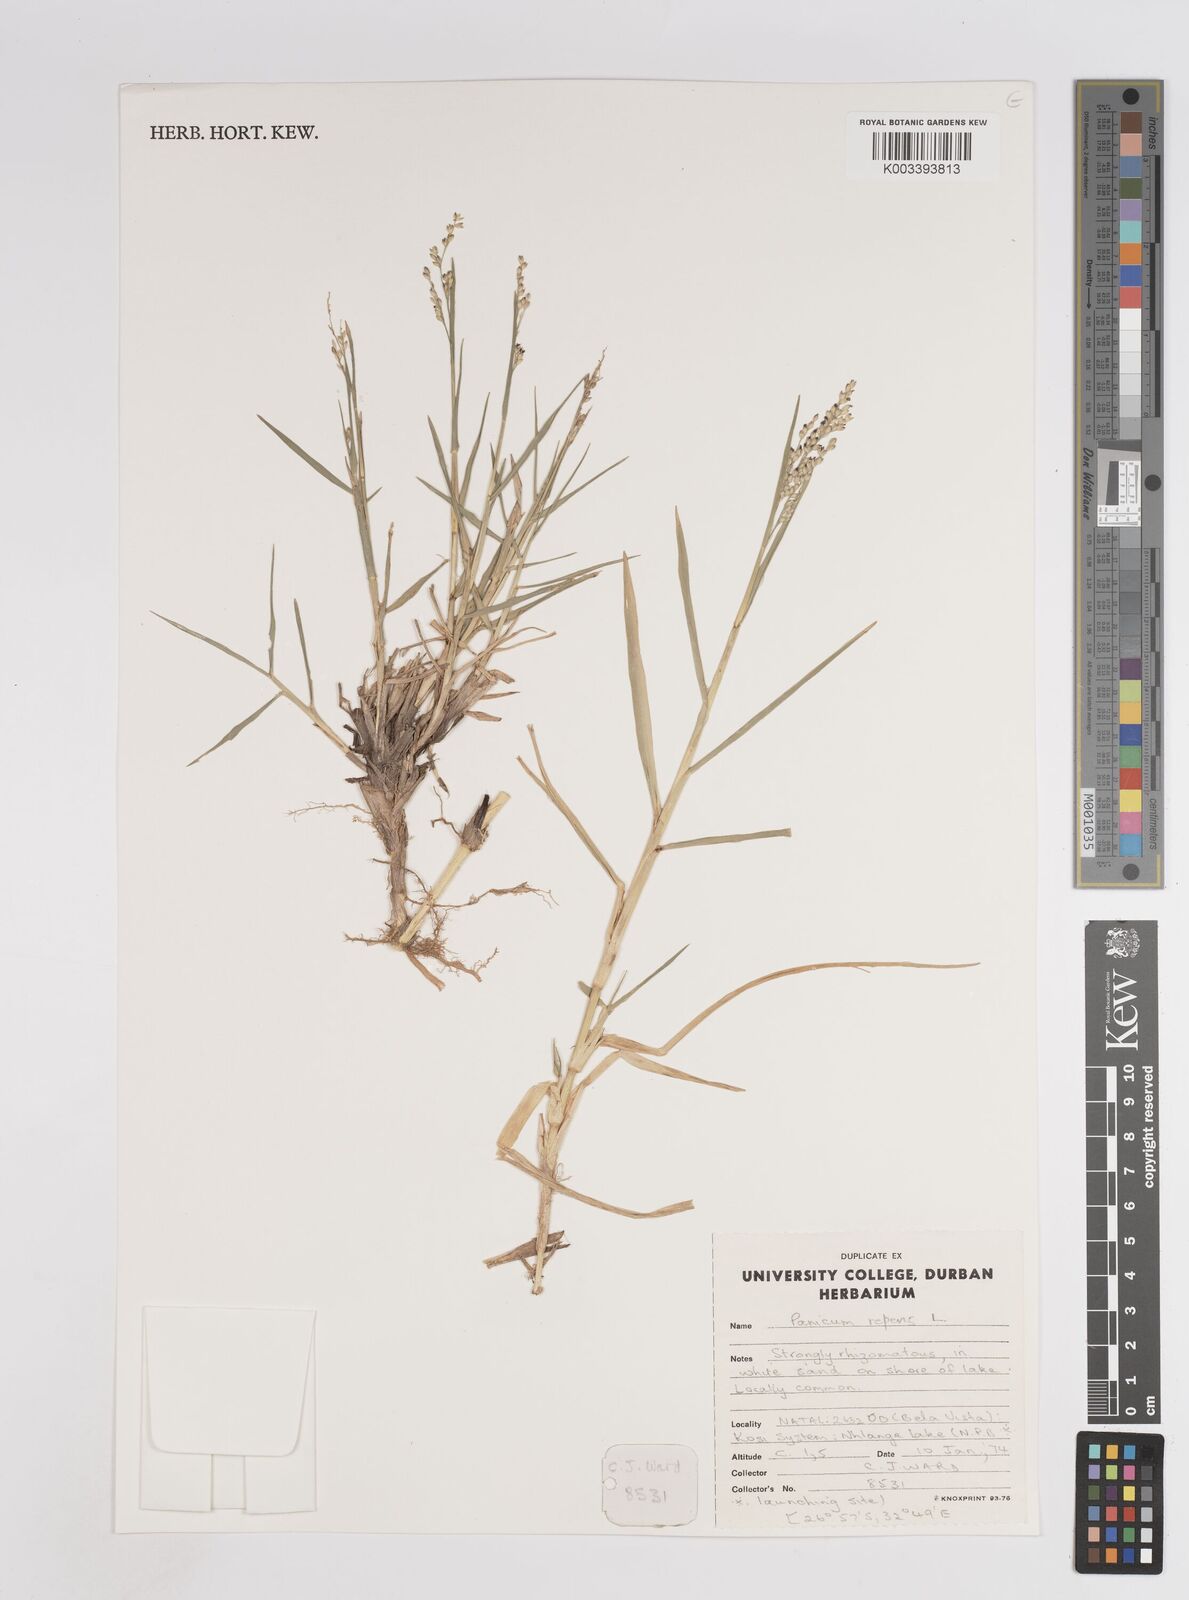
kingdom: Plantae
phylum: Tracheophyta
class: Liliopsida
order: Poales
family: Poaceae
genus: Panicum
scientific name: Panicum repens
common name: Torpedo grass
